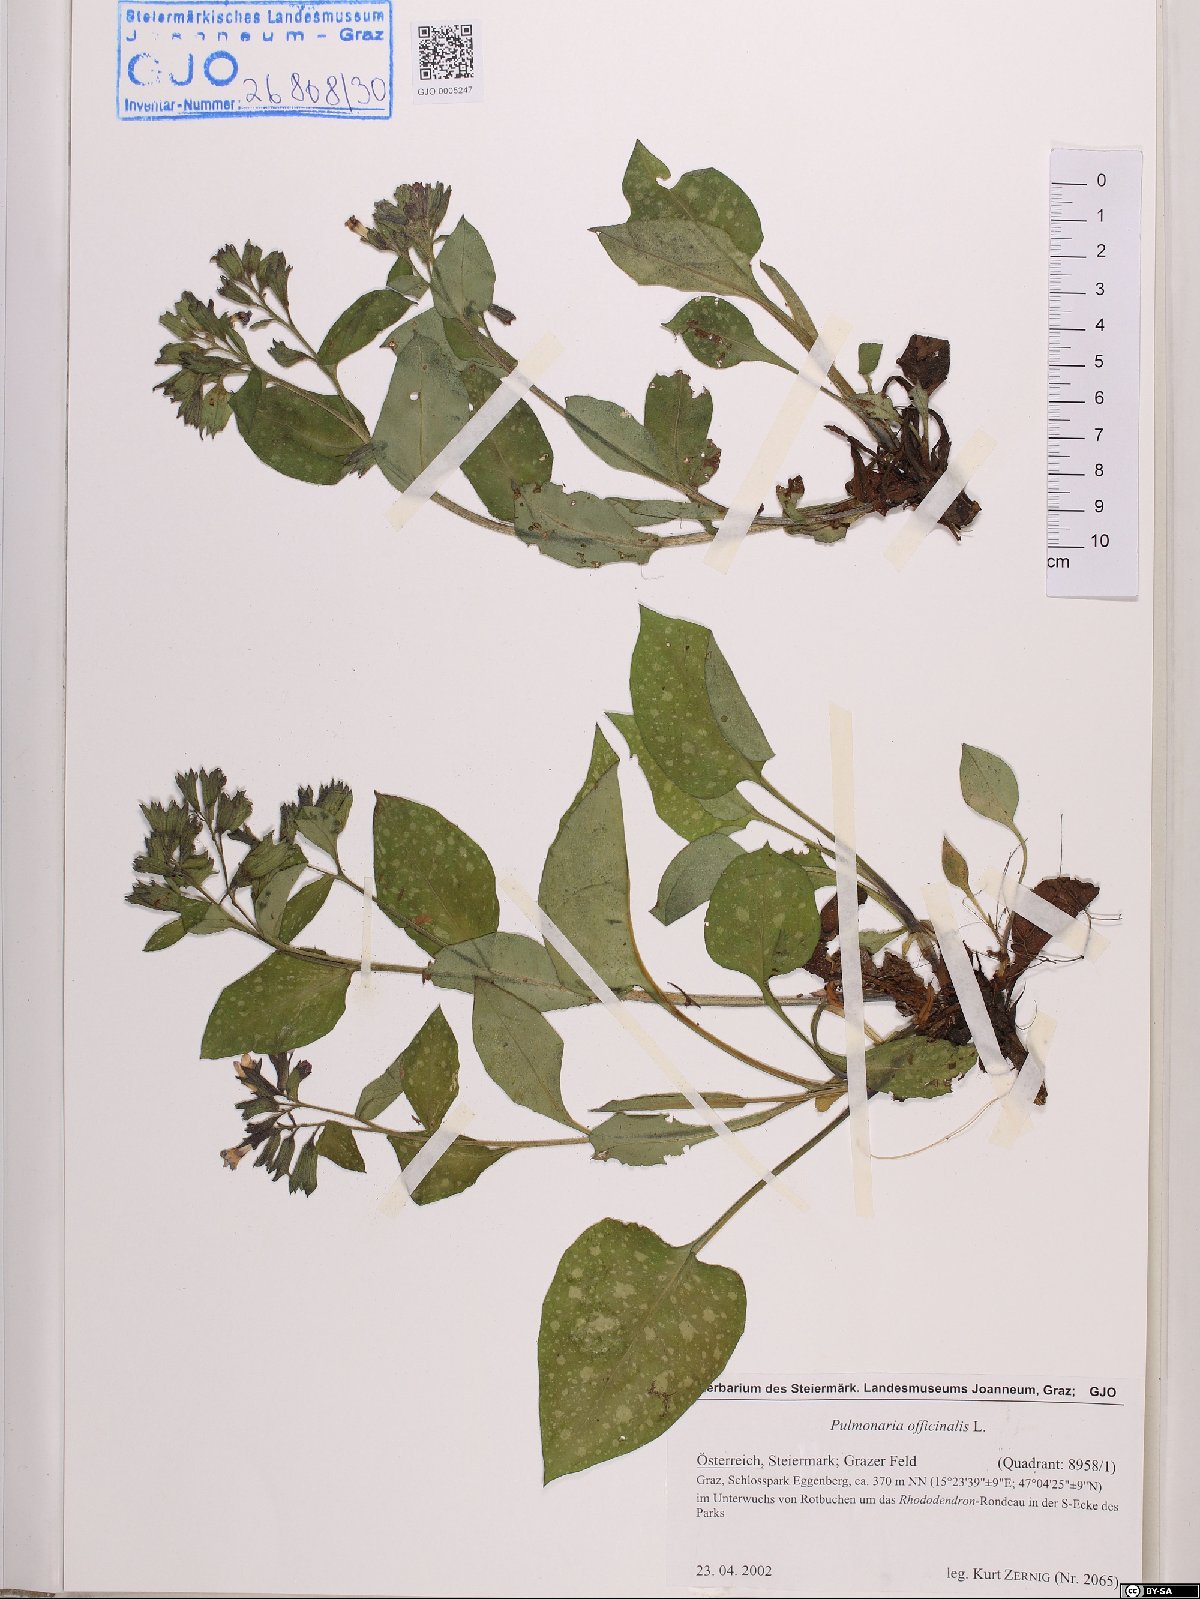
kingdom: Plantae
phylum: Tracheophyta
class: Magnoliopsida
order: Boraginales
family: Boraginaceae
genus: Pulmonaria
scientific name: Pulmonaria officinalis
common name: Lungwort
